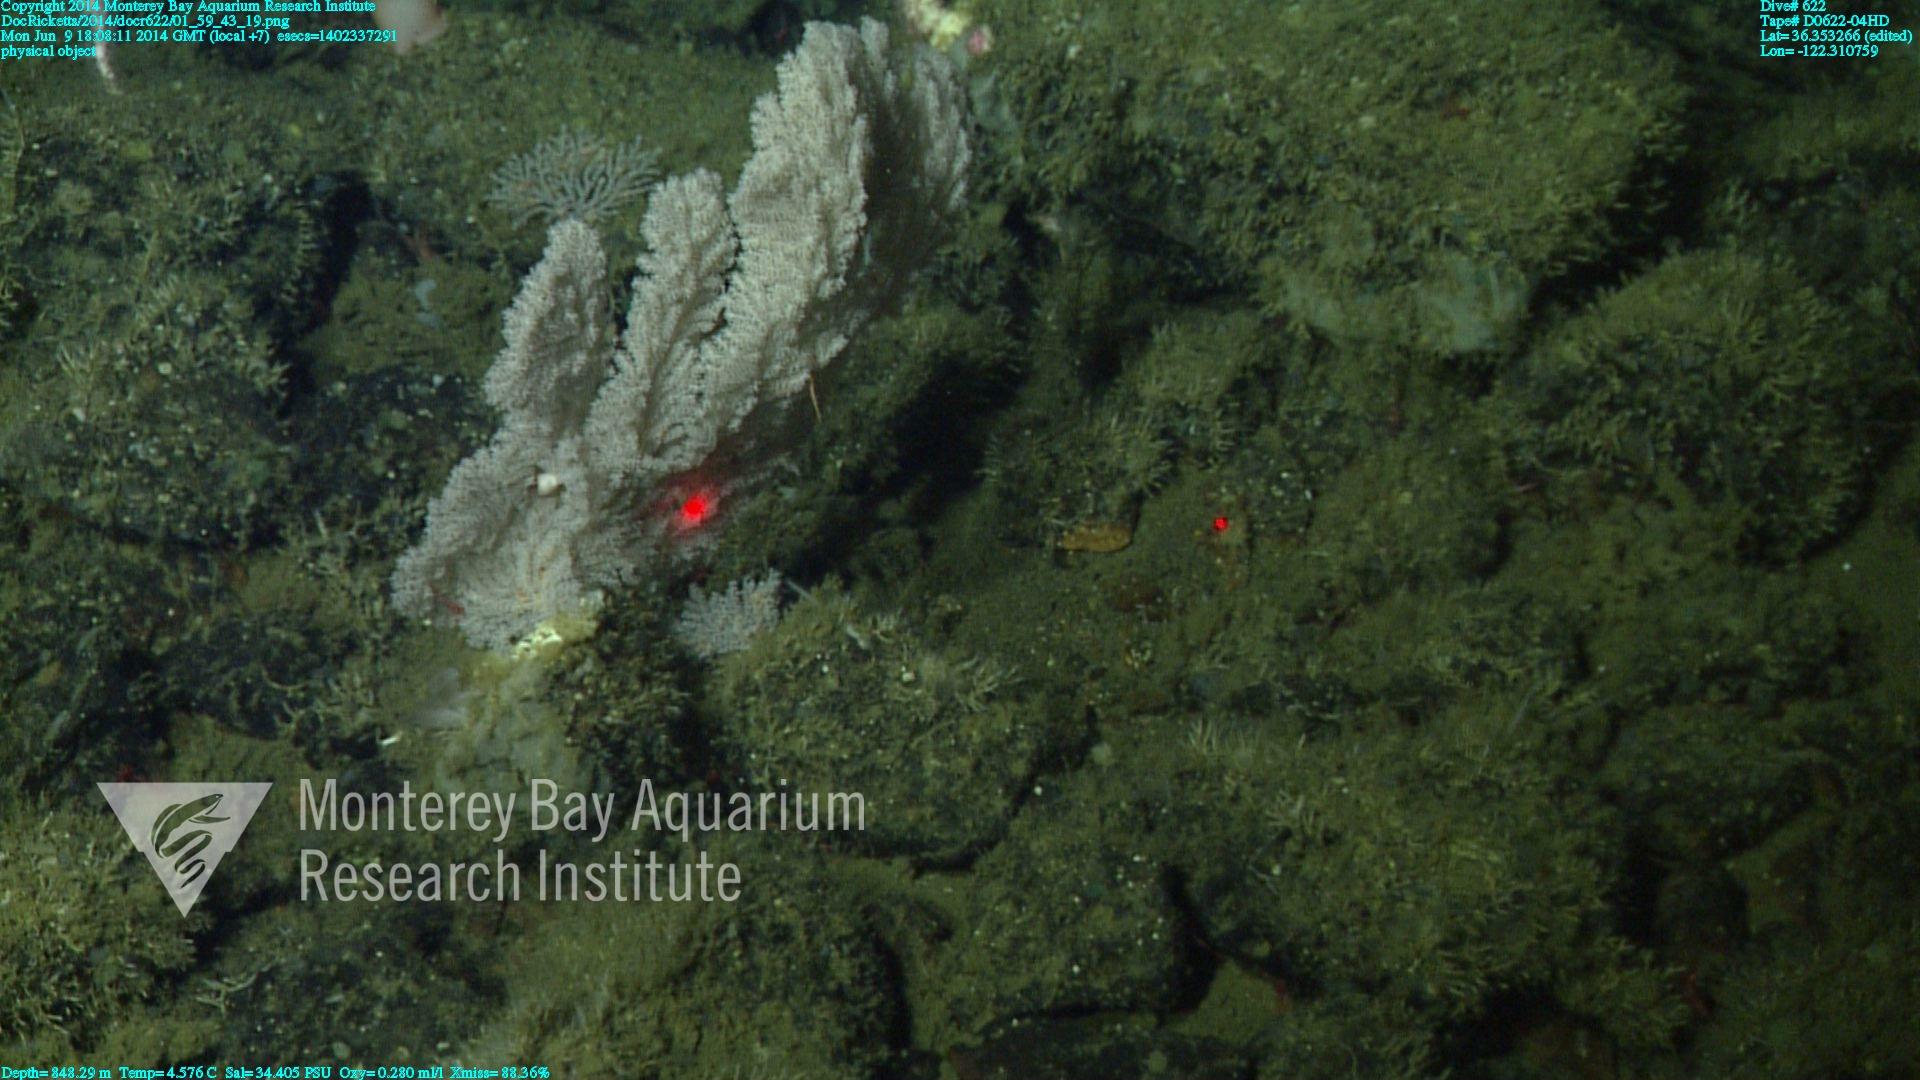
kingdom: Animalia
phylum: Cnidaria
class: Anthozoa
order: Scleralcyonacea
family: Primnoidae
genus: Parastenella
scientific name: Parastenella
